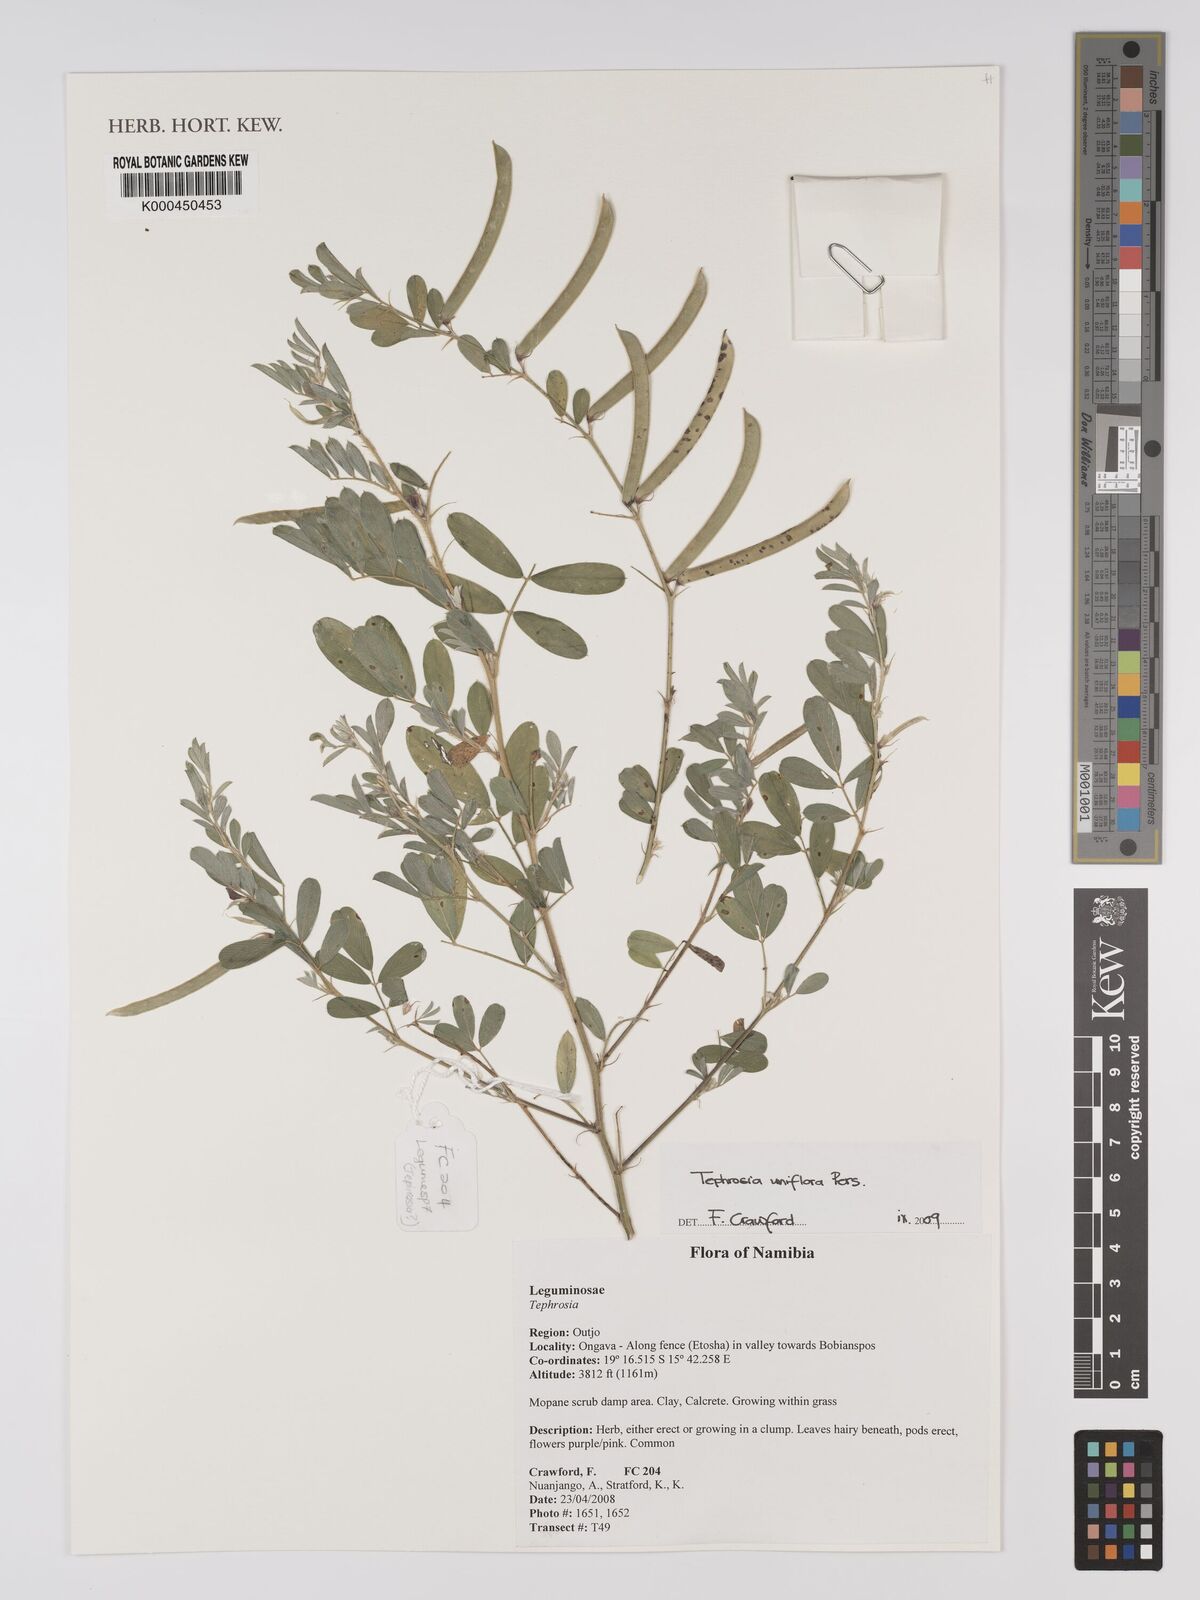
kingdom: Plantae
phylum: Tracheophyta
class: Magnoliopsida
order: Fabales
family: Fabaceae
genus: Tephrosia
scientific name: Tephrosia uniflora
